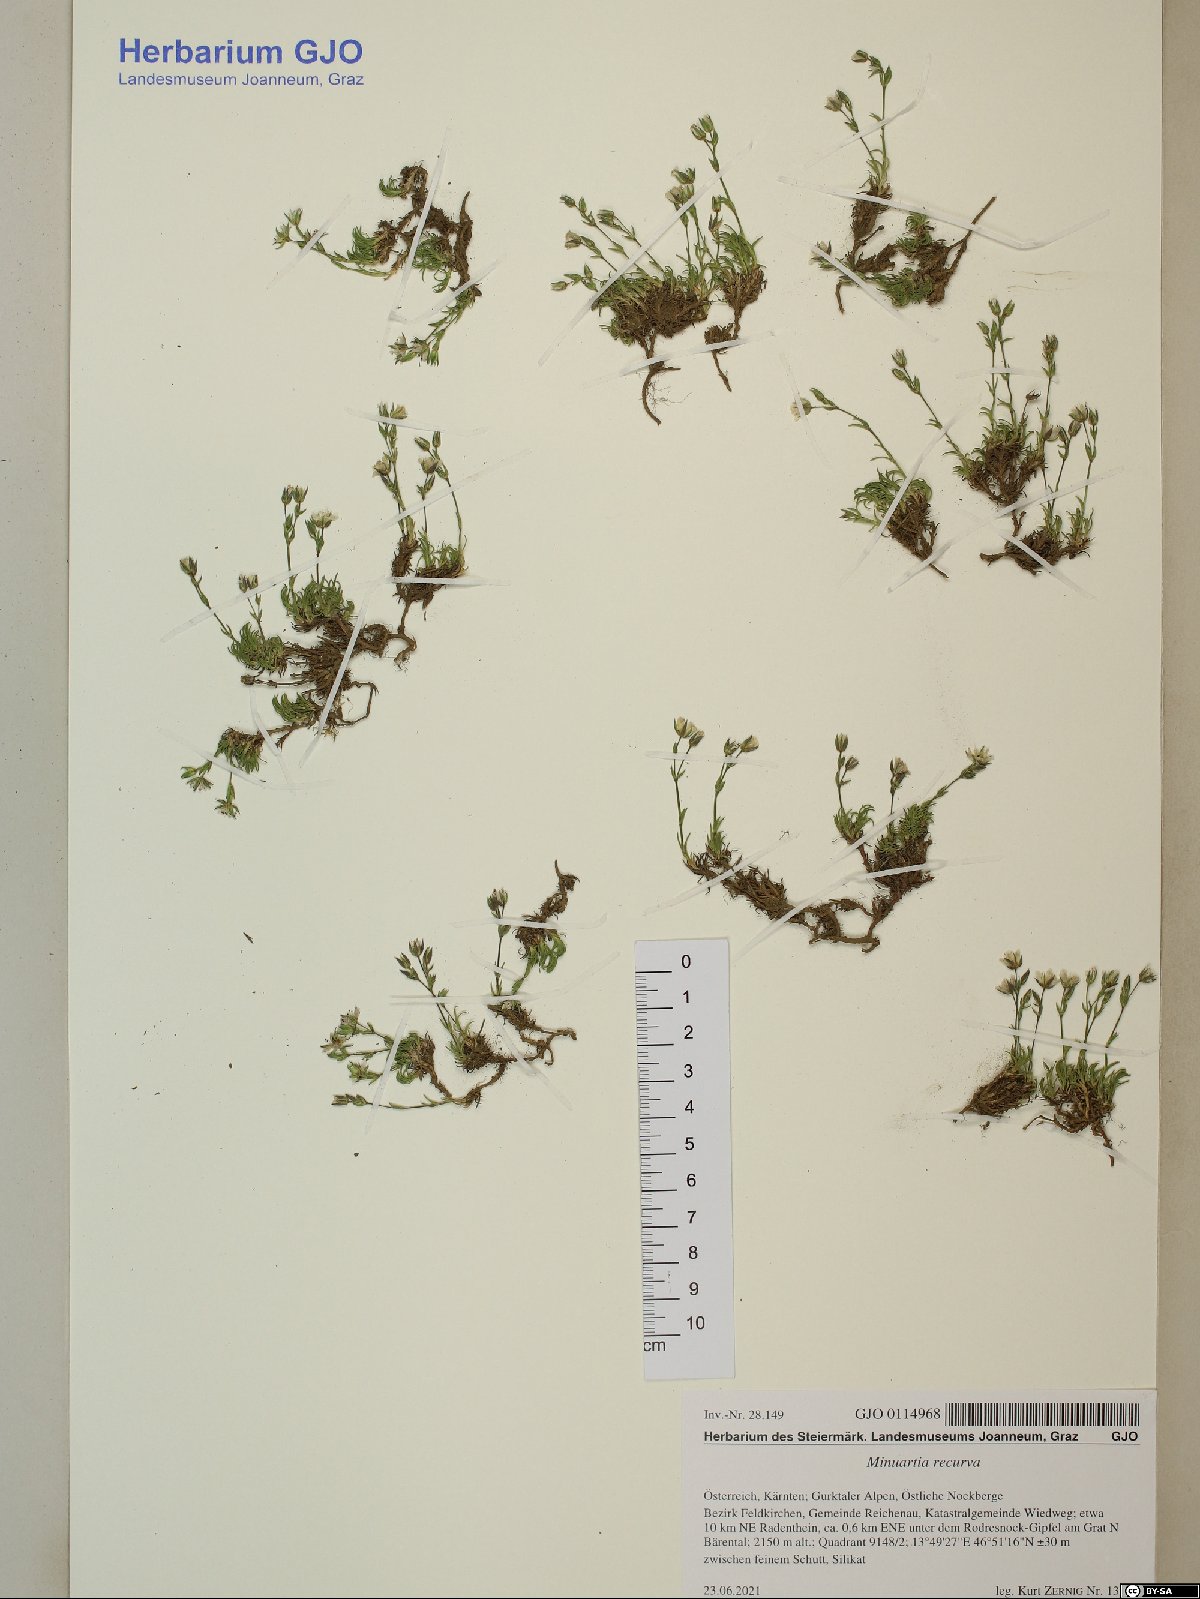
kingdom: Plantae
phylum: Tracheophyta
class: Magnoliopsida
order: Caryophyllales
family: Caryophyllaceae
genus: Minuartia
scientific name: Minuartia recurva
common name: Recurved sandwort
